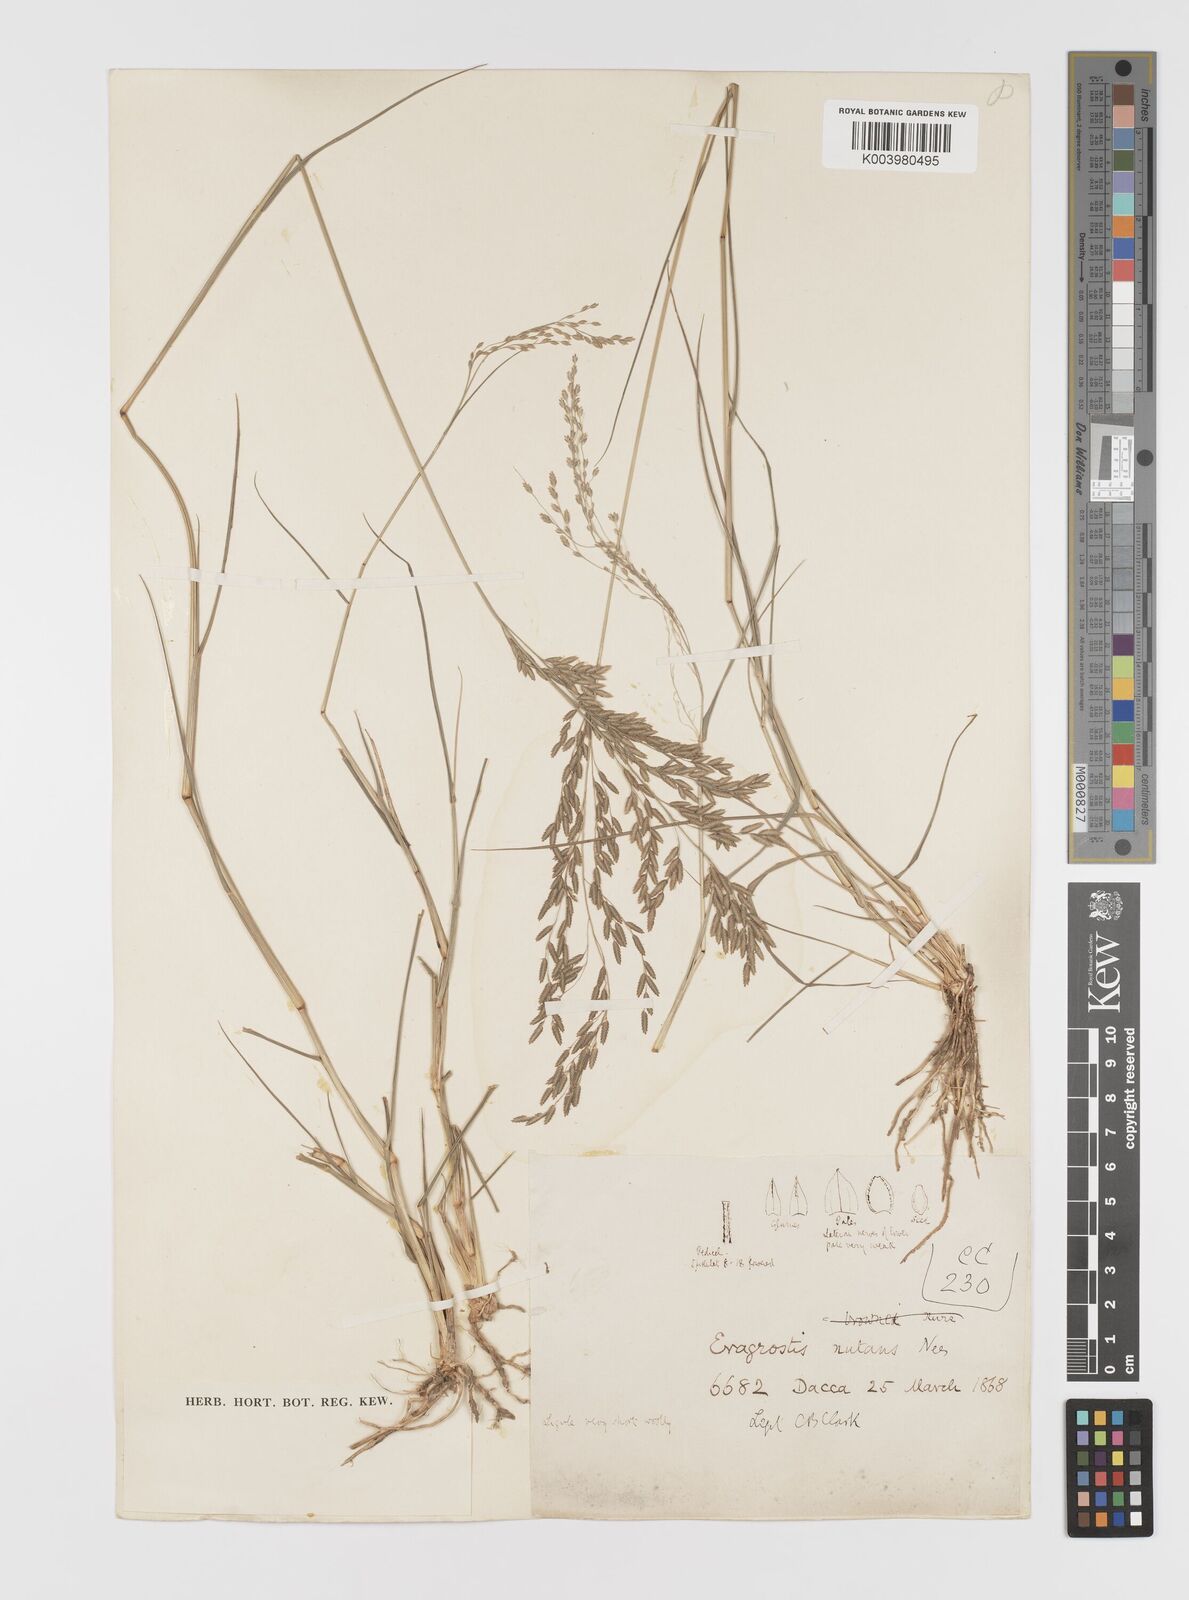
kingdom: Plantae
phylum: Tracheophyta
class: Liliopsida
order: Poales
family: Poaceae
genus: Eragrostis
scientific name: Eragrostis
